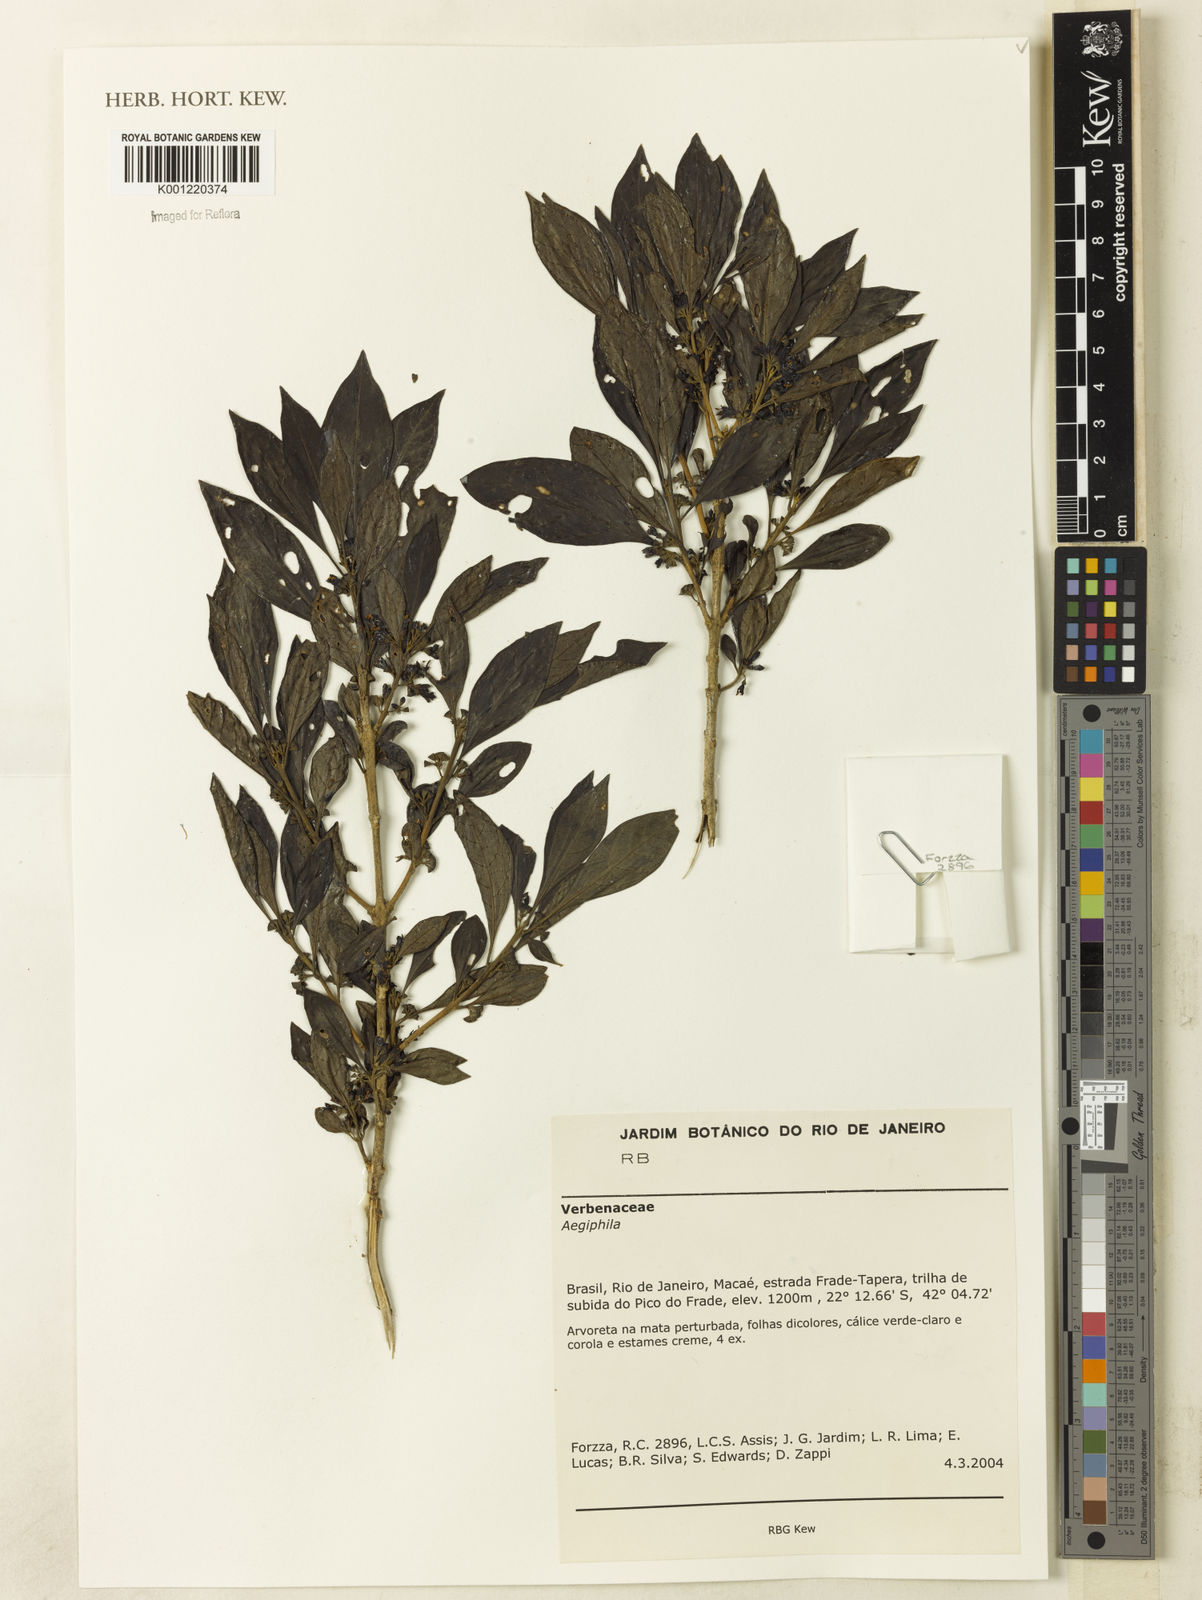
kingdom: Plantae
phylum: Tracheophyta
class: Magnoliopsida
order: Lamiales
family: Lamiaceae
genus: Aegiphila
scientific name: Aegiphila
